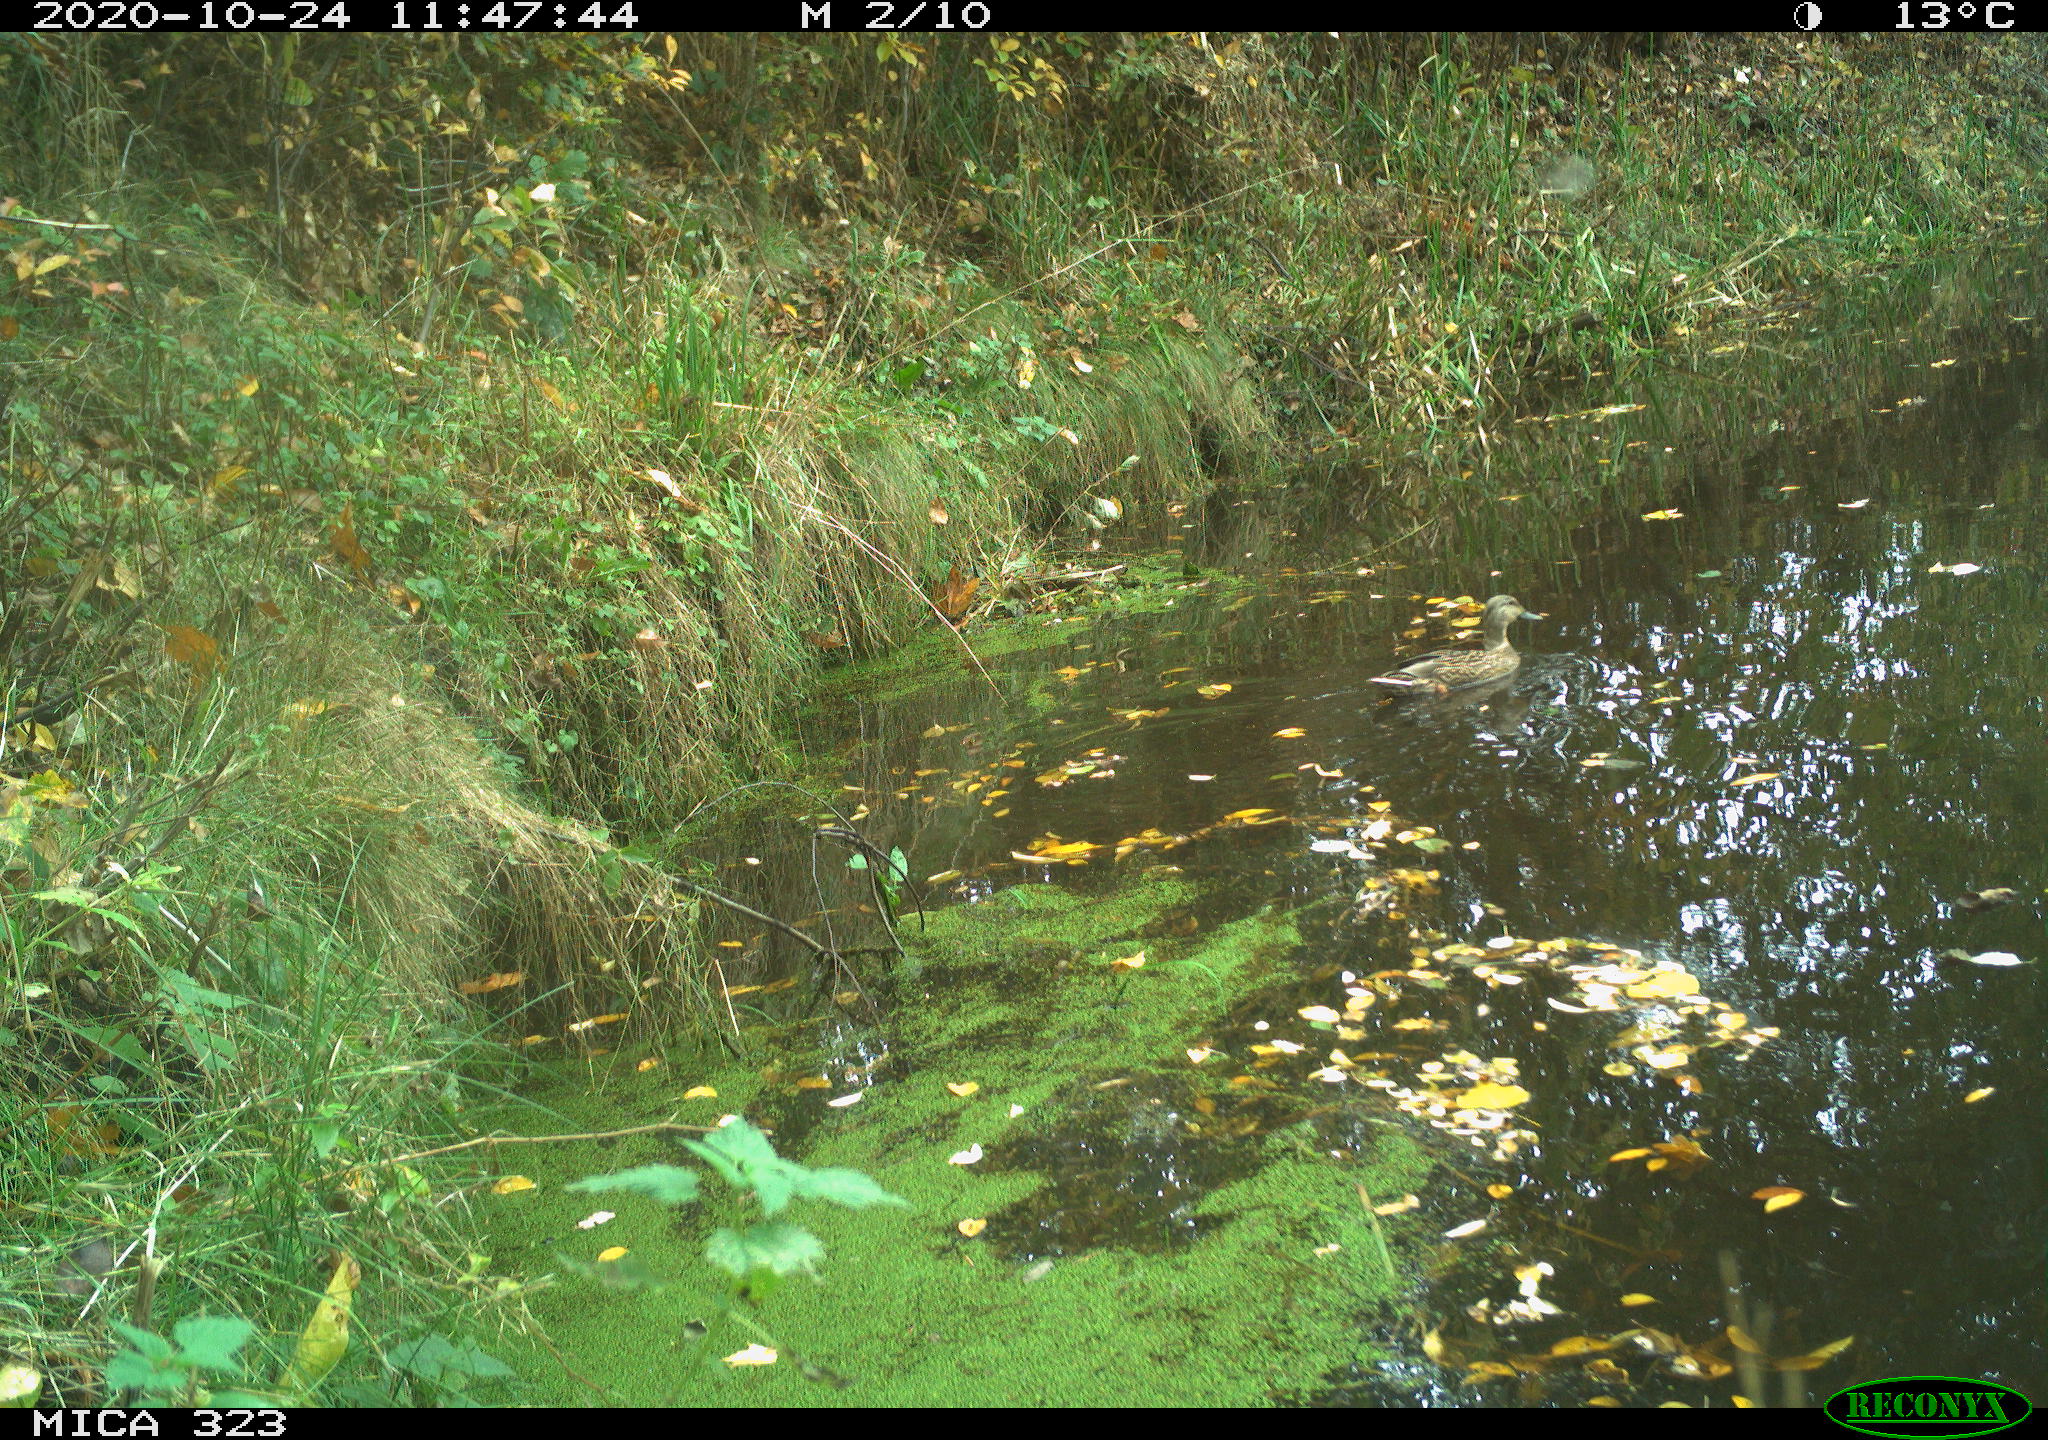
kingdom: Animalia
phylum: Chordata
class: Aves
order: Anseriformes
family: Anatidae
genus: Anas
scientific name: Anas platyrhynchos
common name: Mallard
